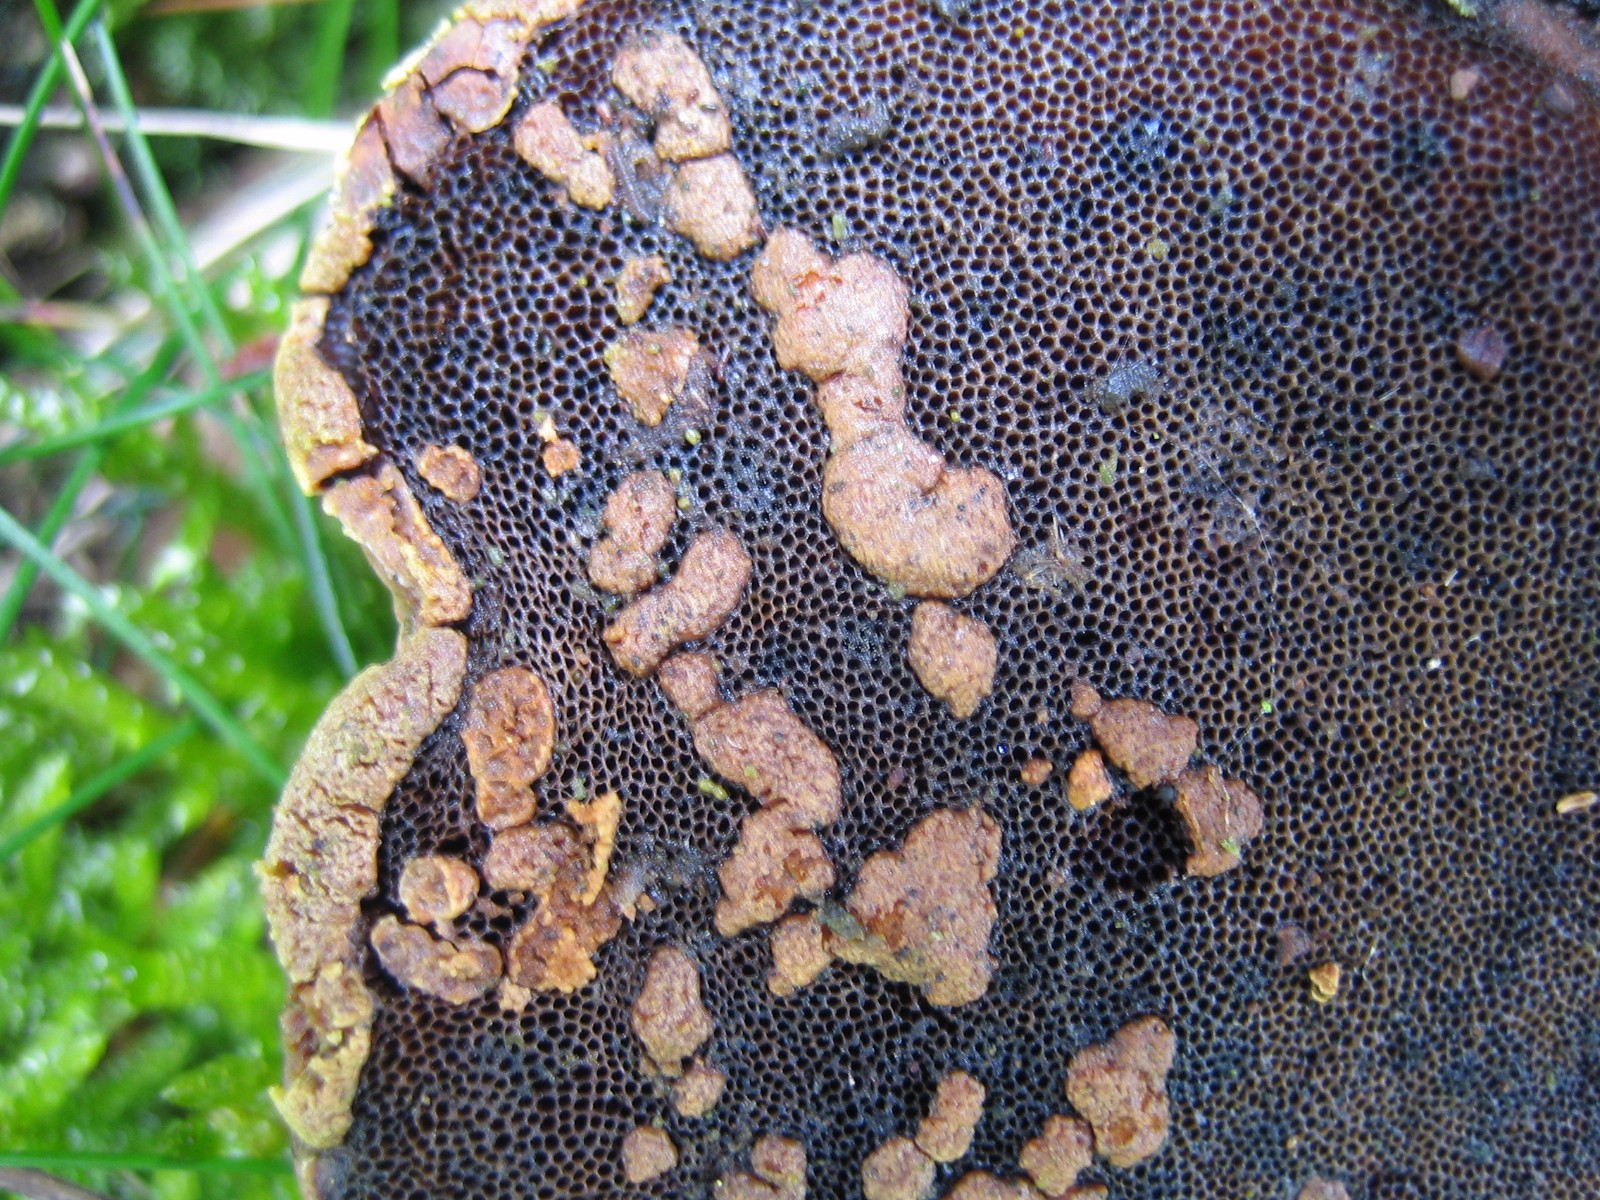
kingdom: Fungi
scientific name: Fungi
